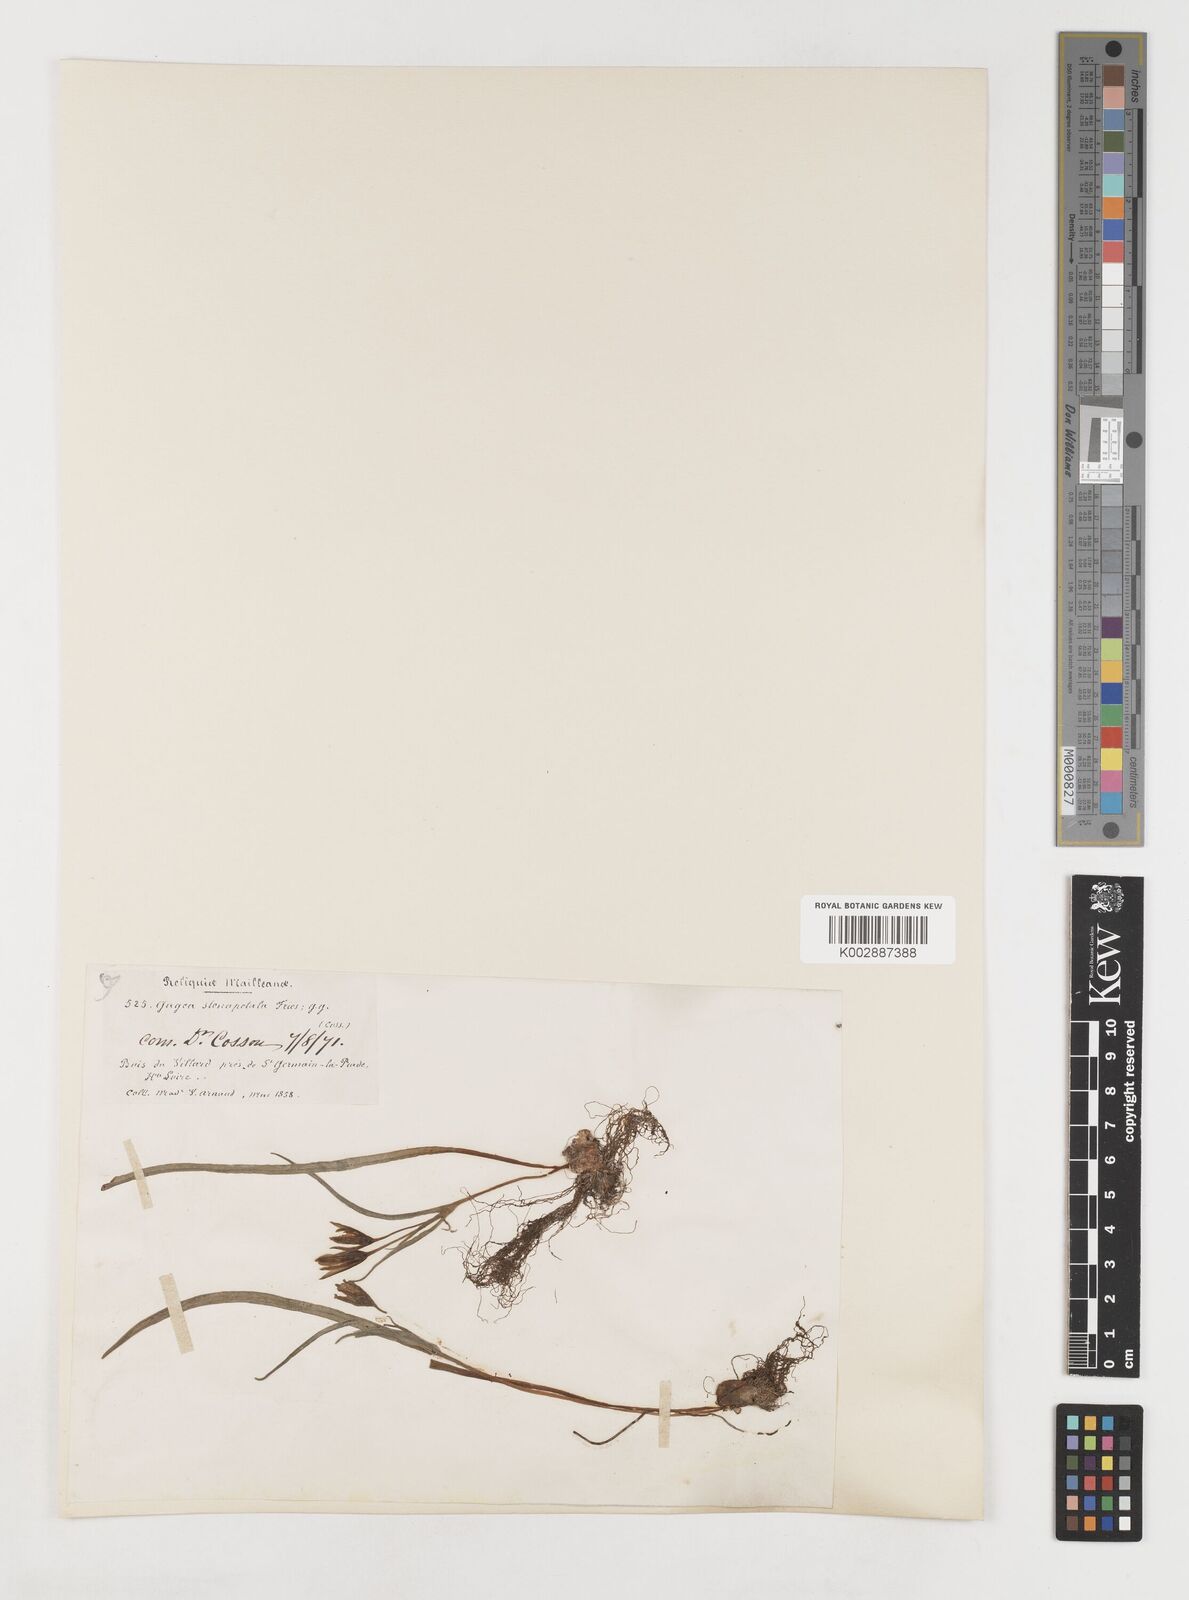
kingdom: Plantae
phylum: Tracheophyta
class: Liliopsida
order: Liliales
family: Liliaceae
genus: Gagea
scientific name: Gagea pratensis
